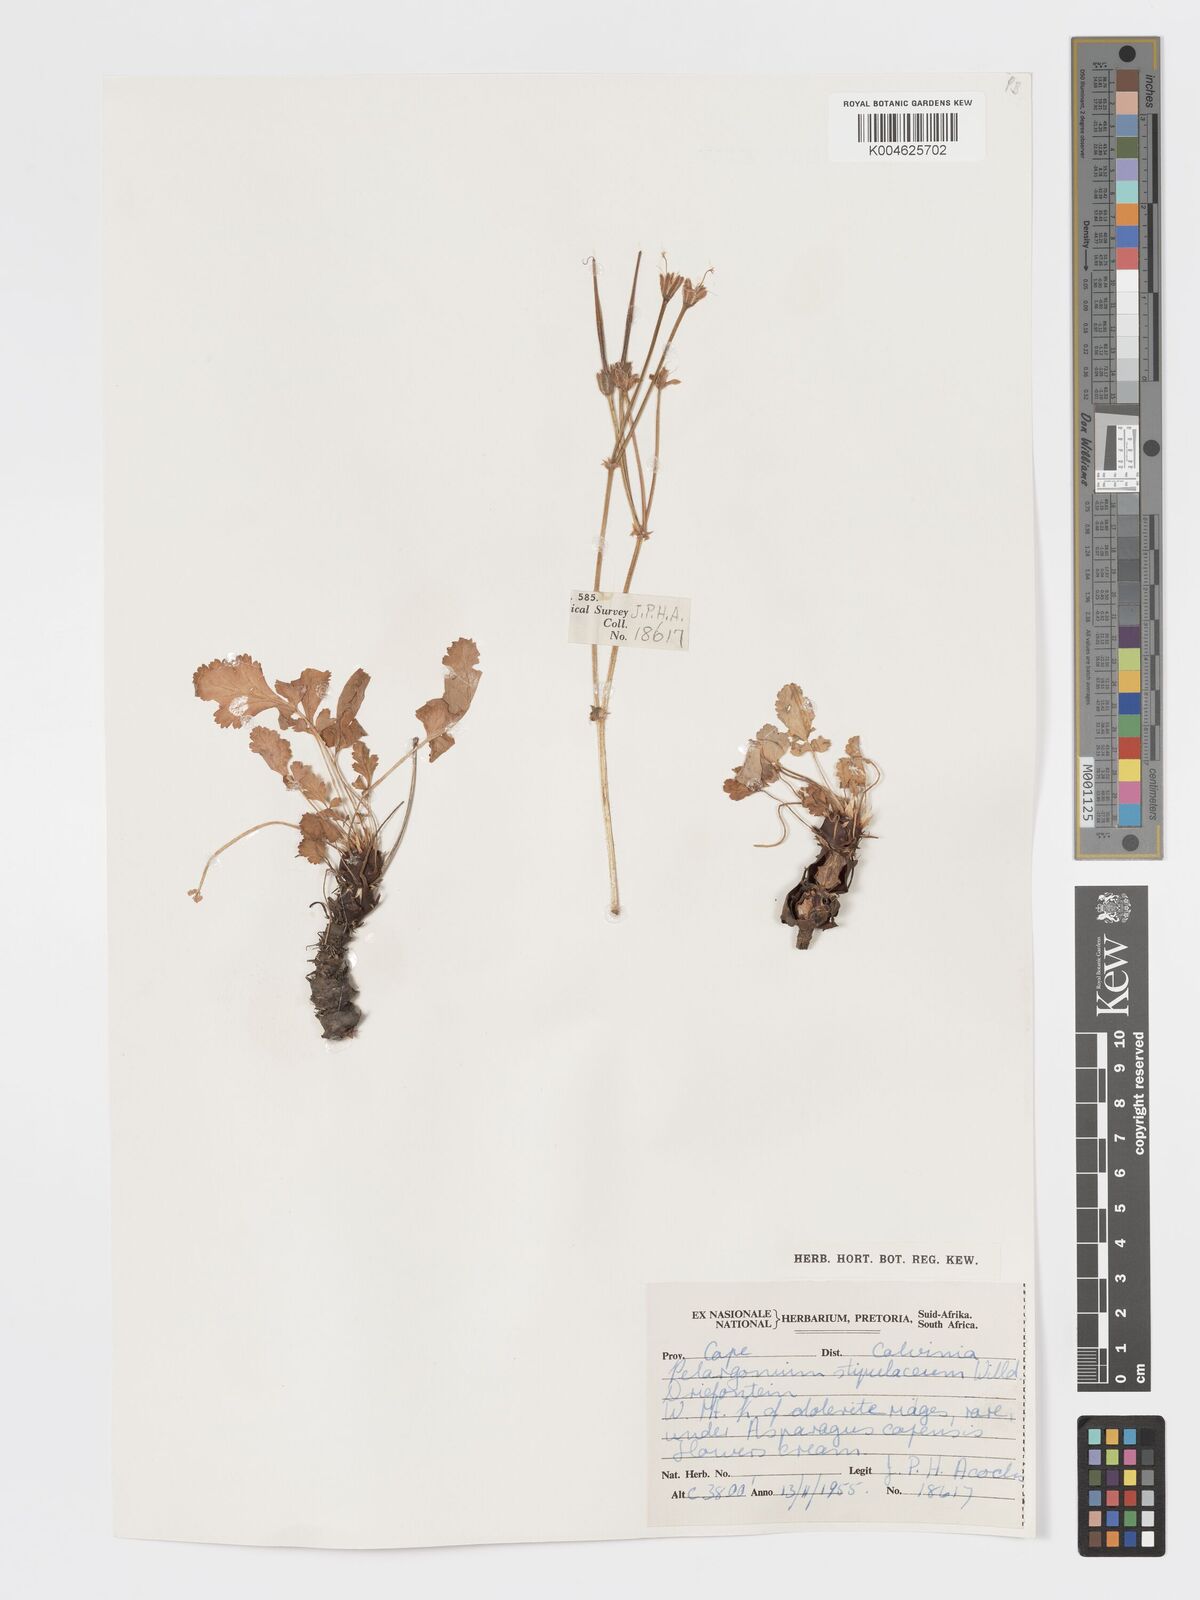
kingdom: Plantae
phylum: Tracheophyta
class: Magnoliopsida
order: Geraniales
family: Geraniaceae
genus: Pelargonium
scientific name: Pelargonium stipulaceum
